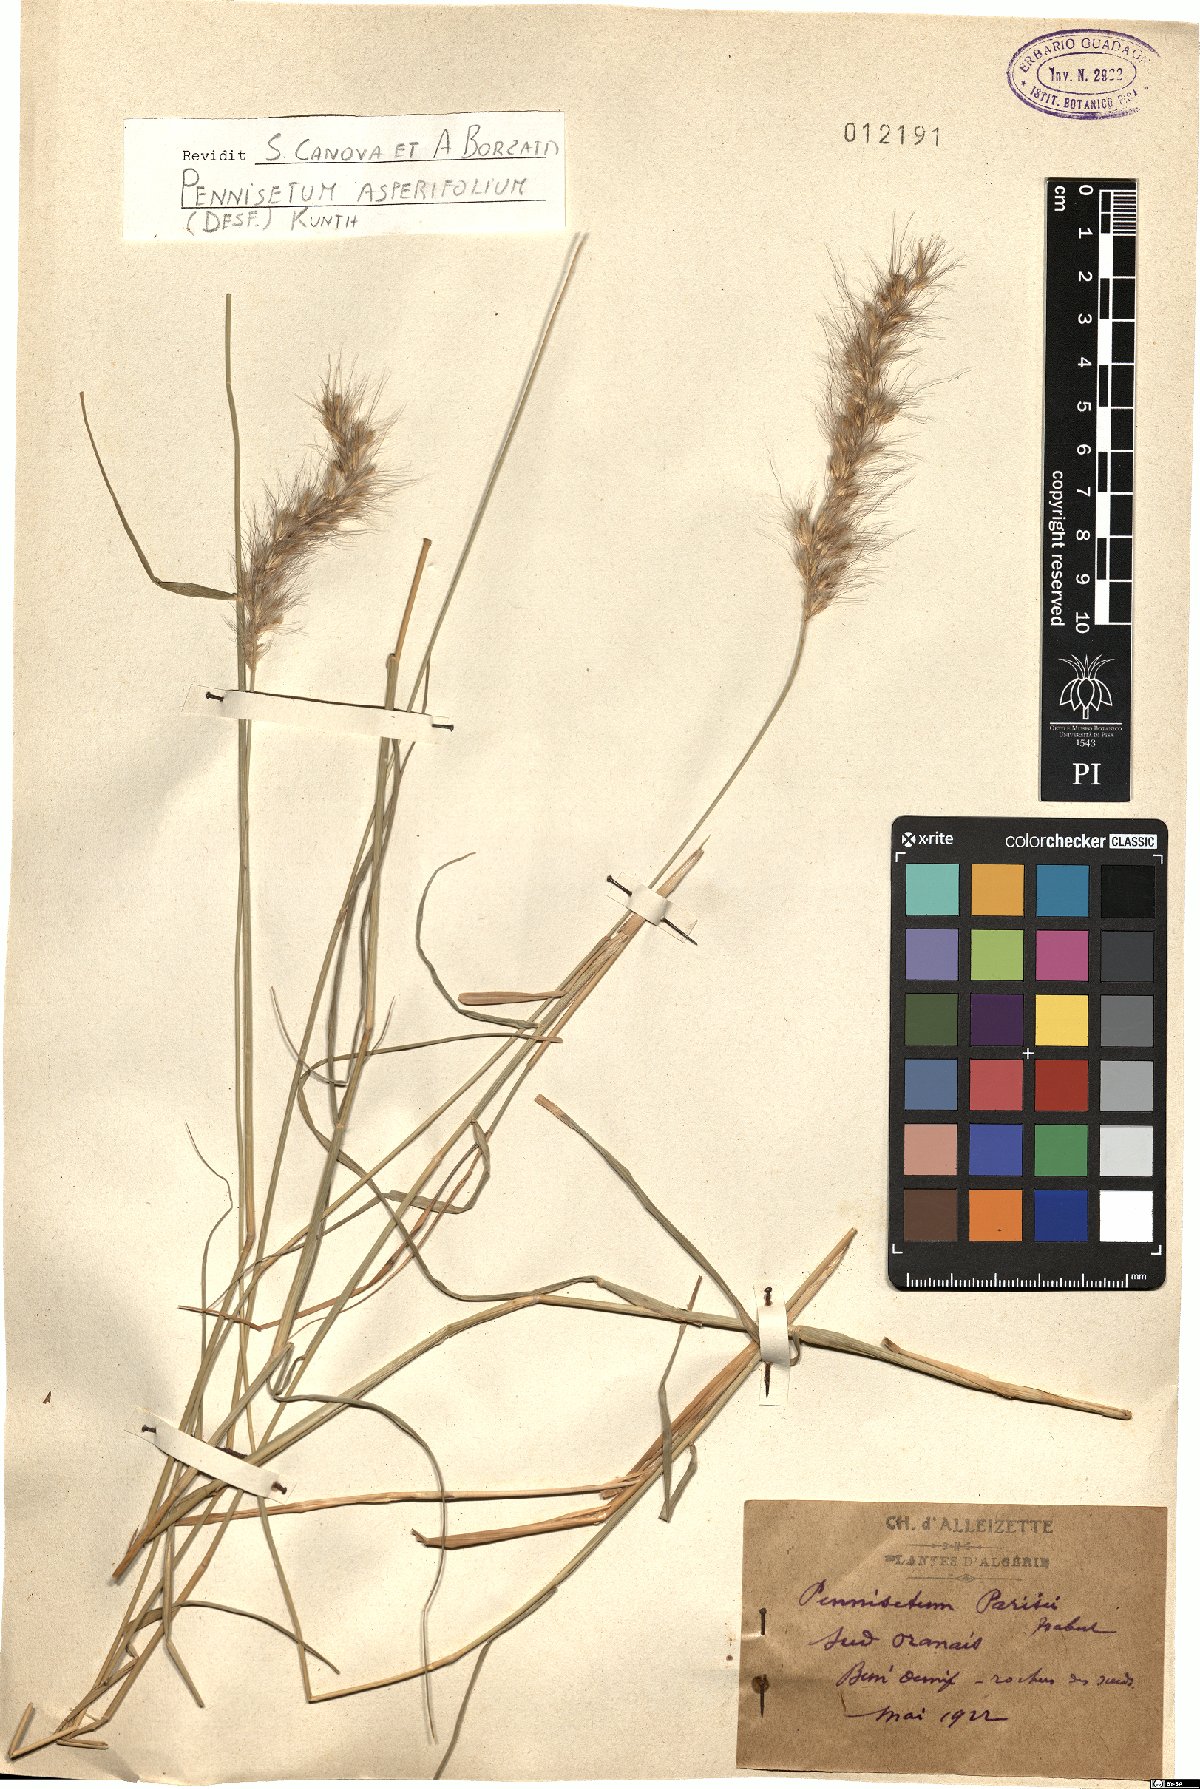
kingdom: Plantae
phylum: Tracheophyta
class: Liliopsida
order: Poales
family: Poaceae
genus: Cenchrus
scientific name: Cenchrus alopecuroides
